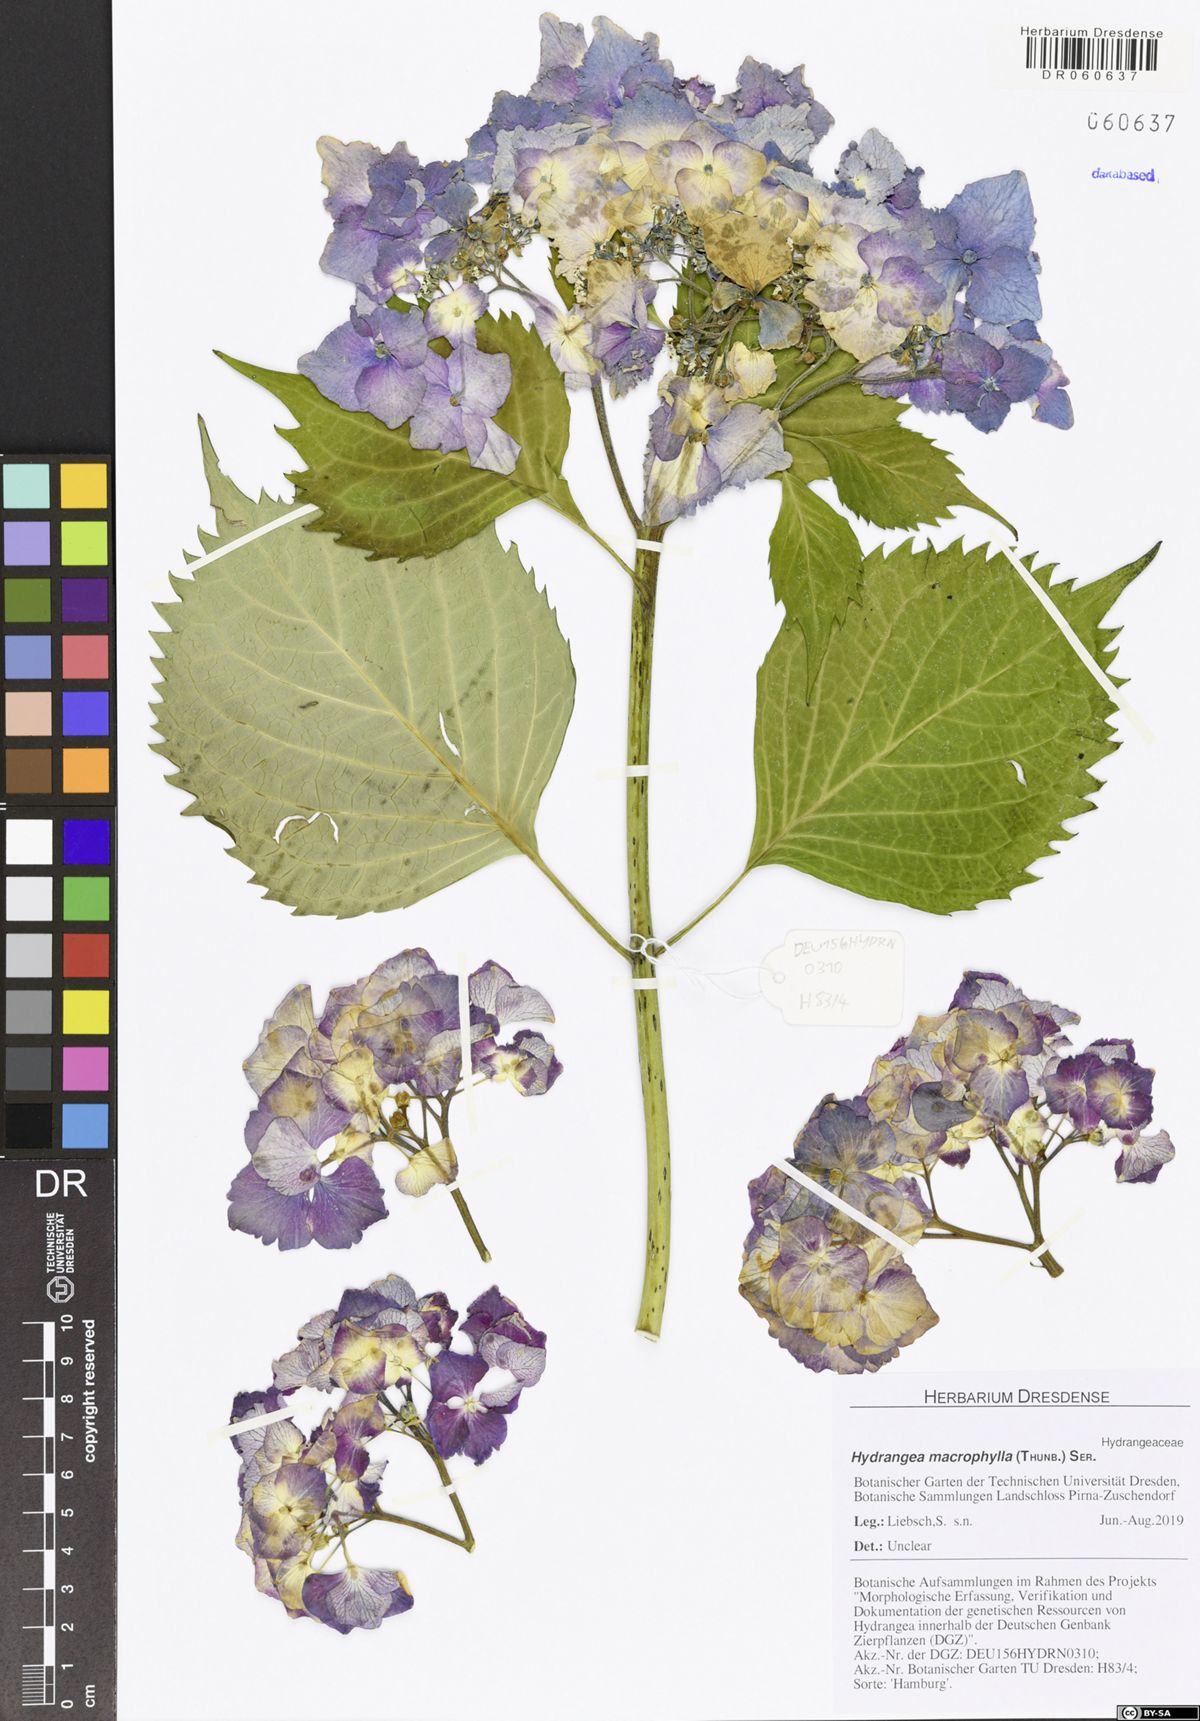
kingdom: Plantae
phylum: Tracheophyta
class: Magnoliopsida
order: Cornales
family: Hydrangeaceae
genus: Hydrangea
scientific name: Hydrangea macrophylla
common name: Hydrangea
